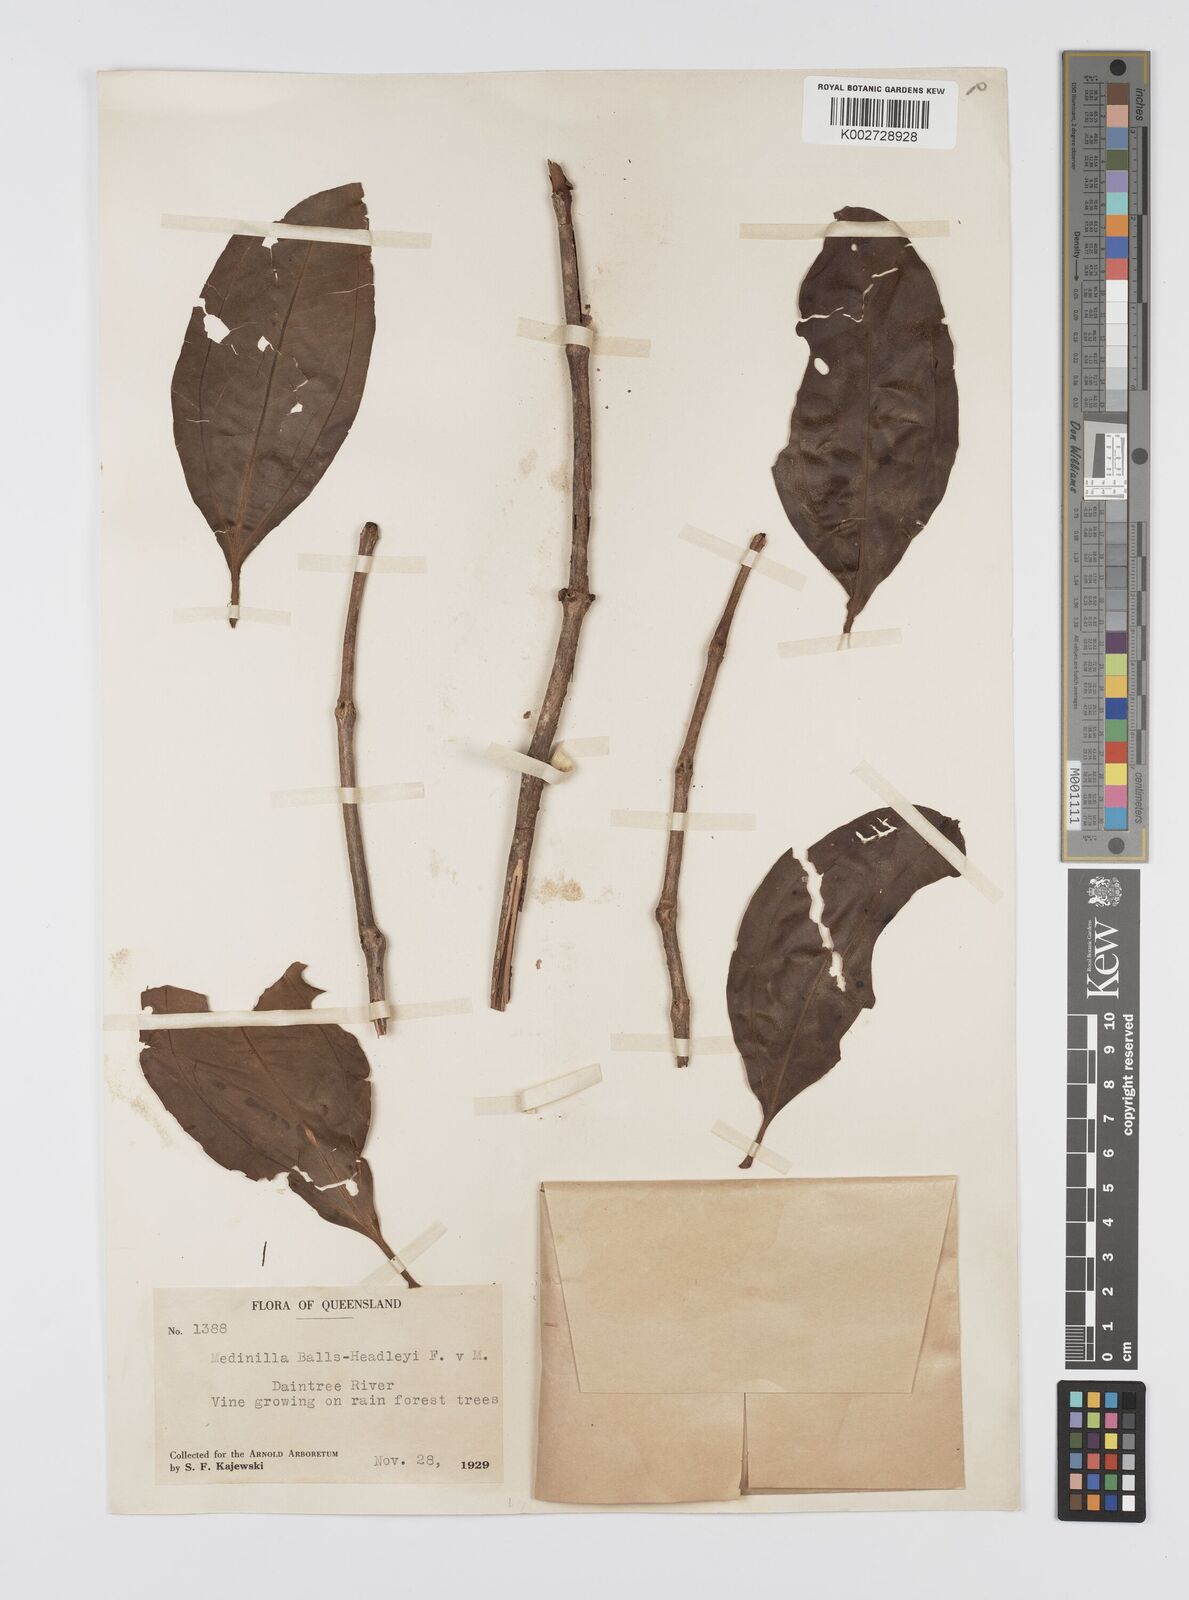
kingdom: Plantae
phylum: Tracheophyta
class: Magnoliopsida
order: Myrtales
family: Melastomataceae
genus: Medinilla
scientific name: Medinilla balls-headleyi
